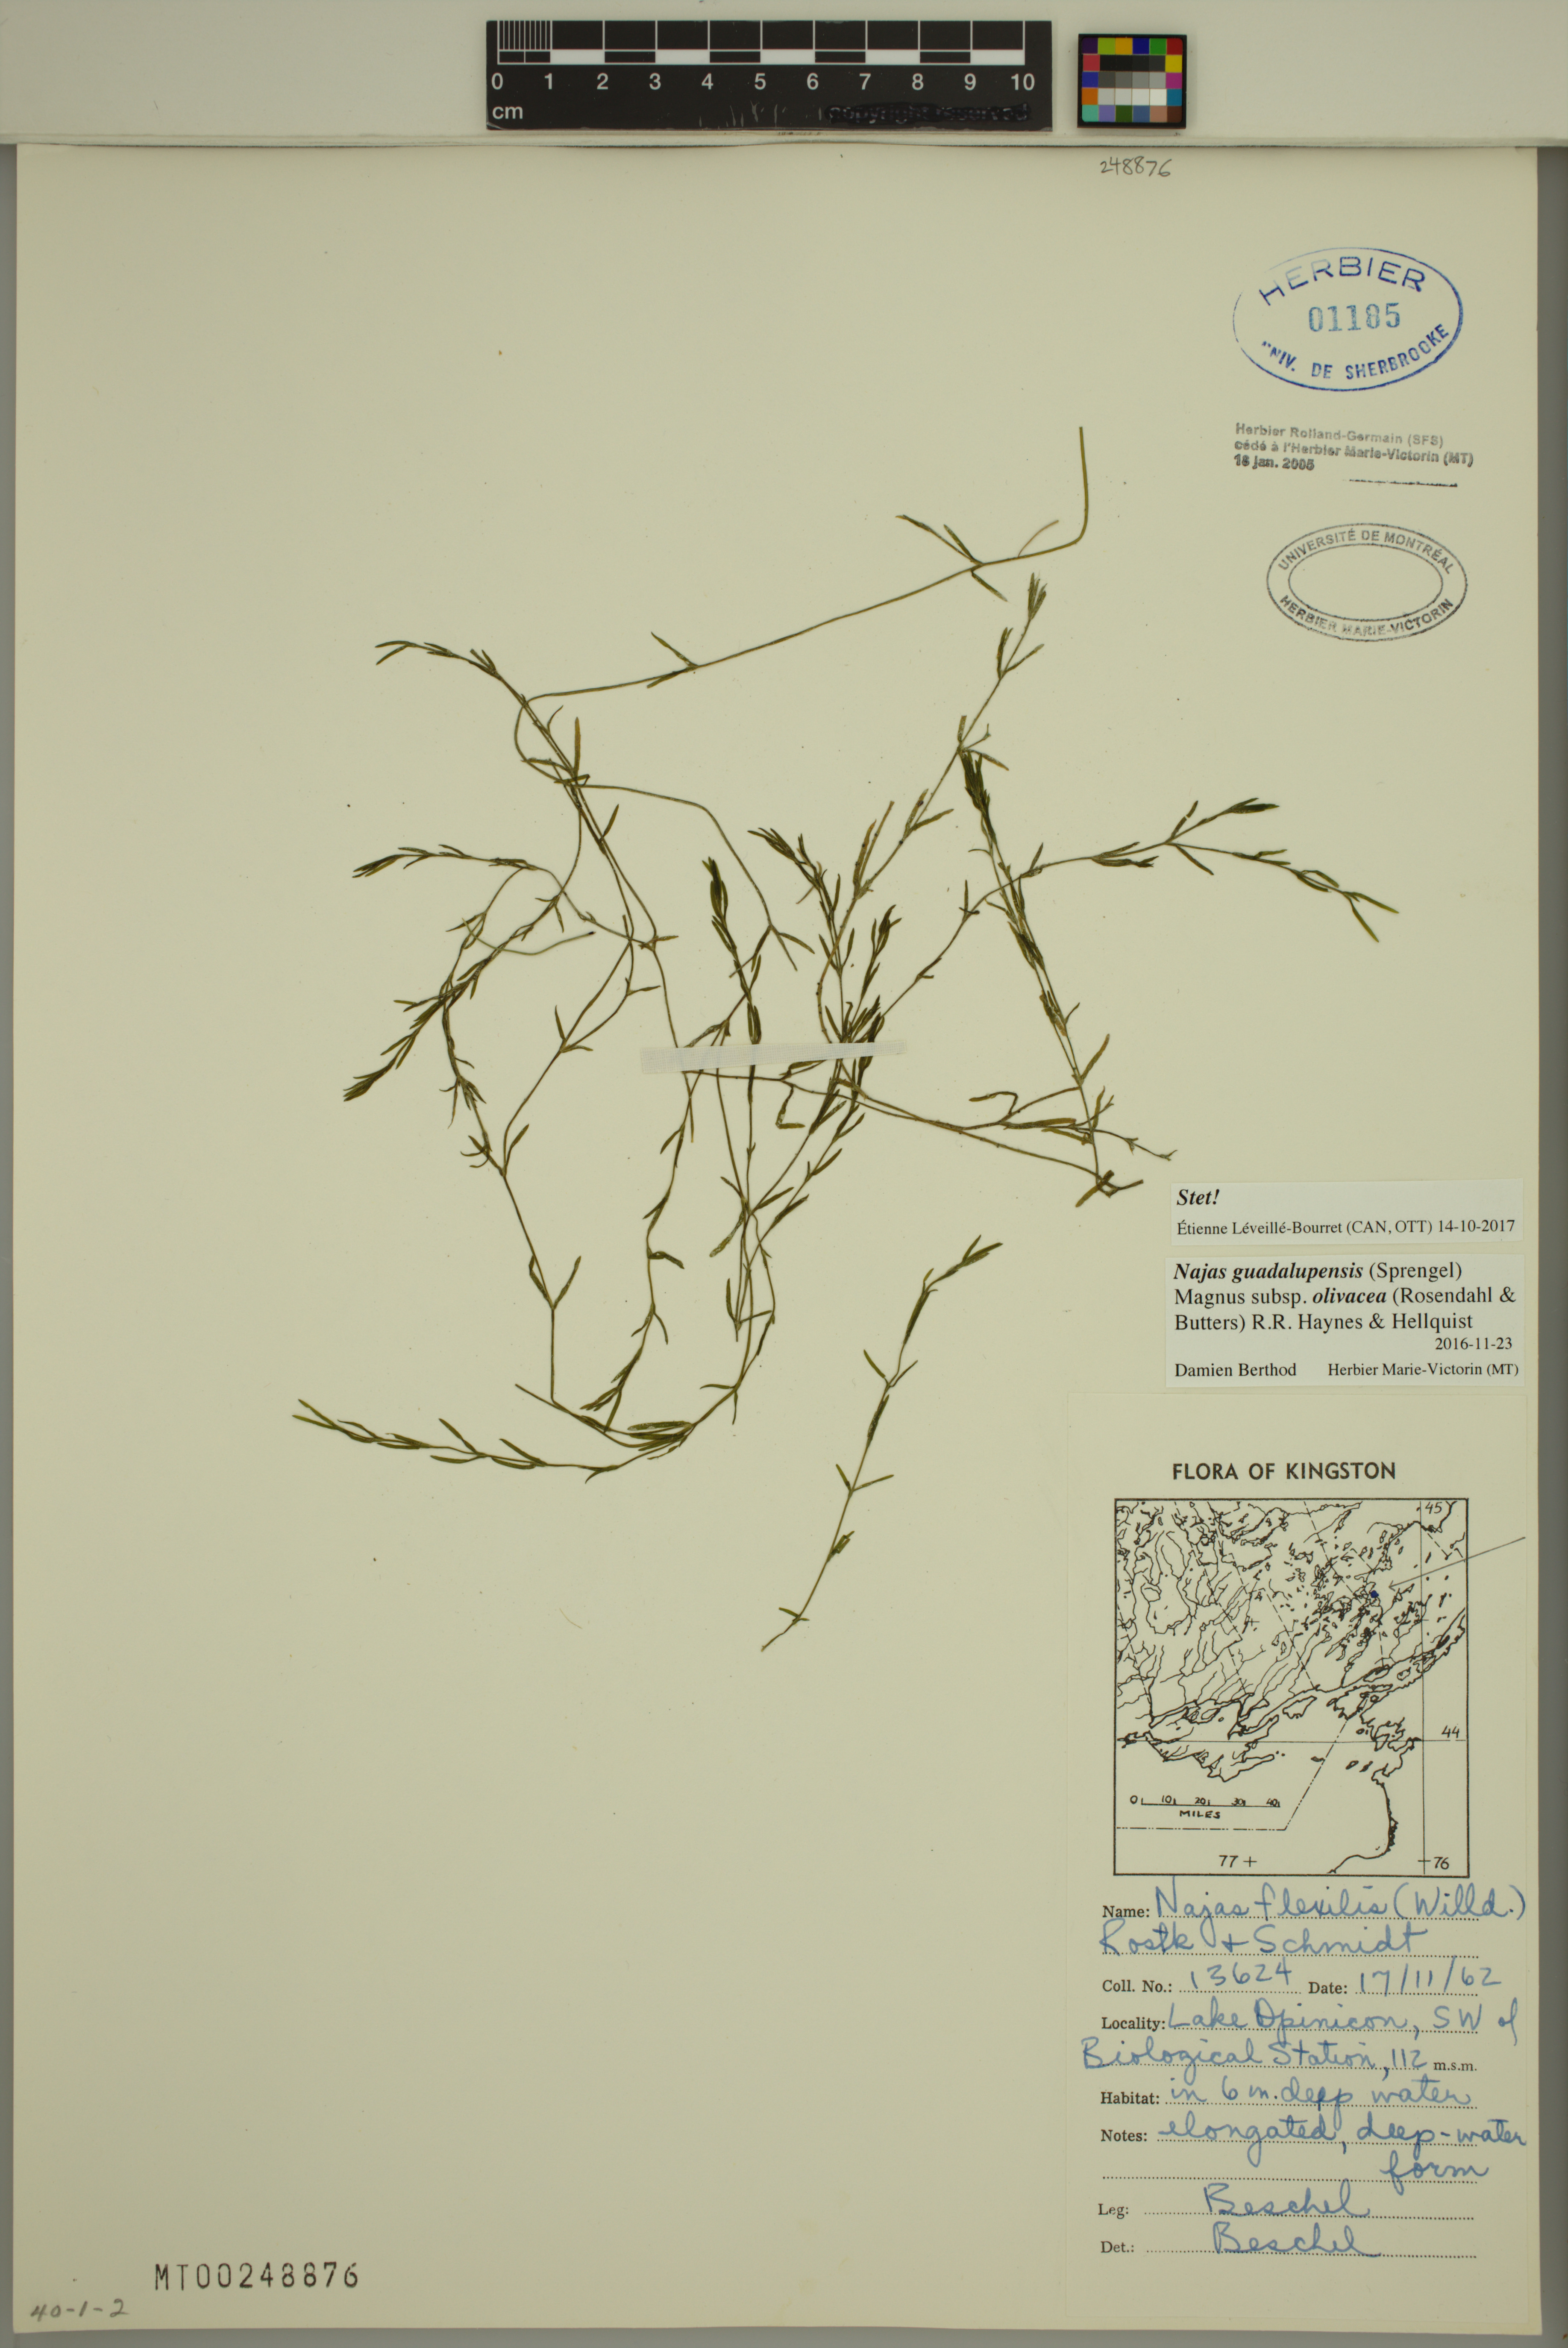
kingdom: Plantae
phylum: Tracheophyta
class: Liliopsida
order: Alismatales
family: Hydrocharitaceae
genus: Najas
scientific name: Najas guadalupensis
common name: Southern naiad
